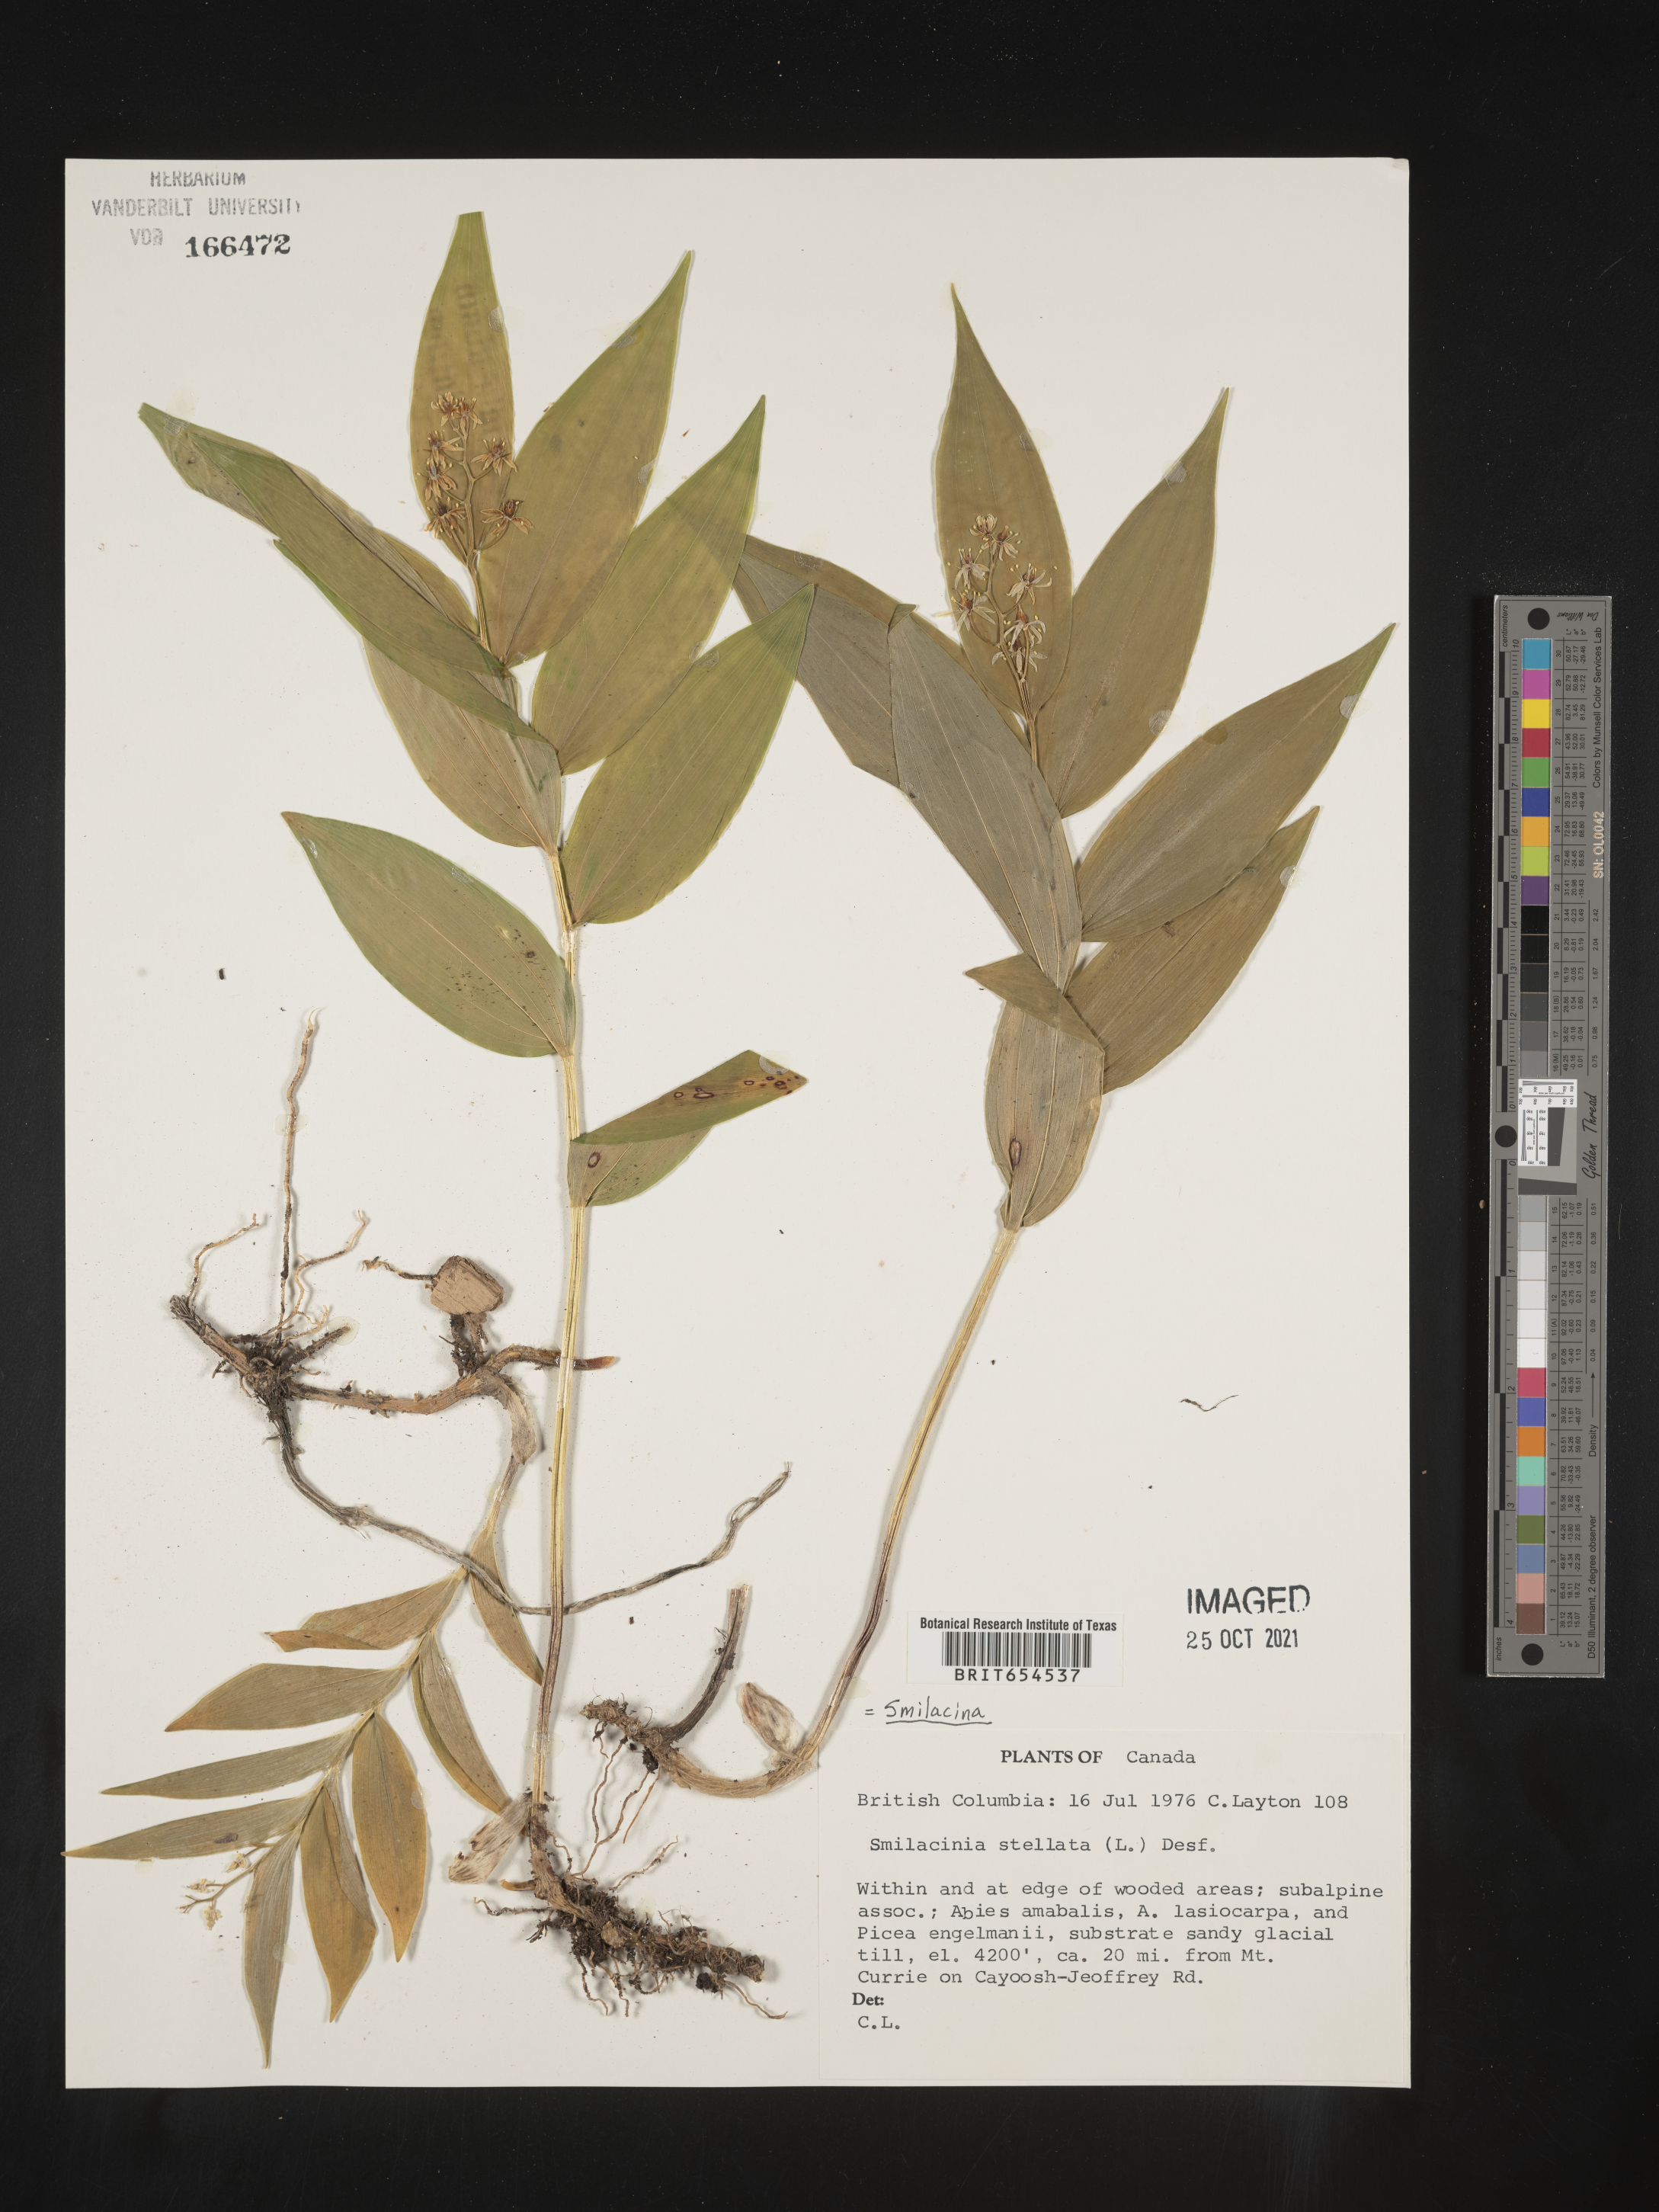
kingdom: Plantae
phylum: Tracheophyta
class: Liliopsida
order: Liliales
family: Liliaceae
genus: Smilacina
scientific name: Smilacina
